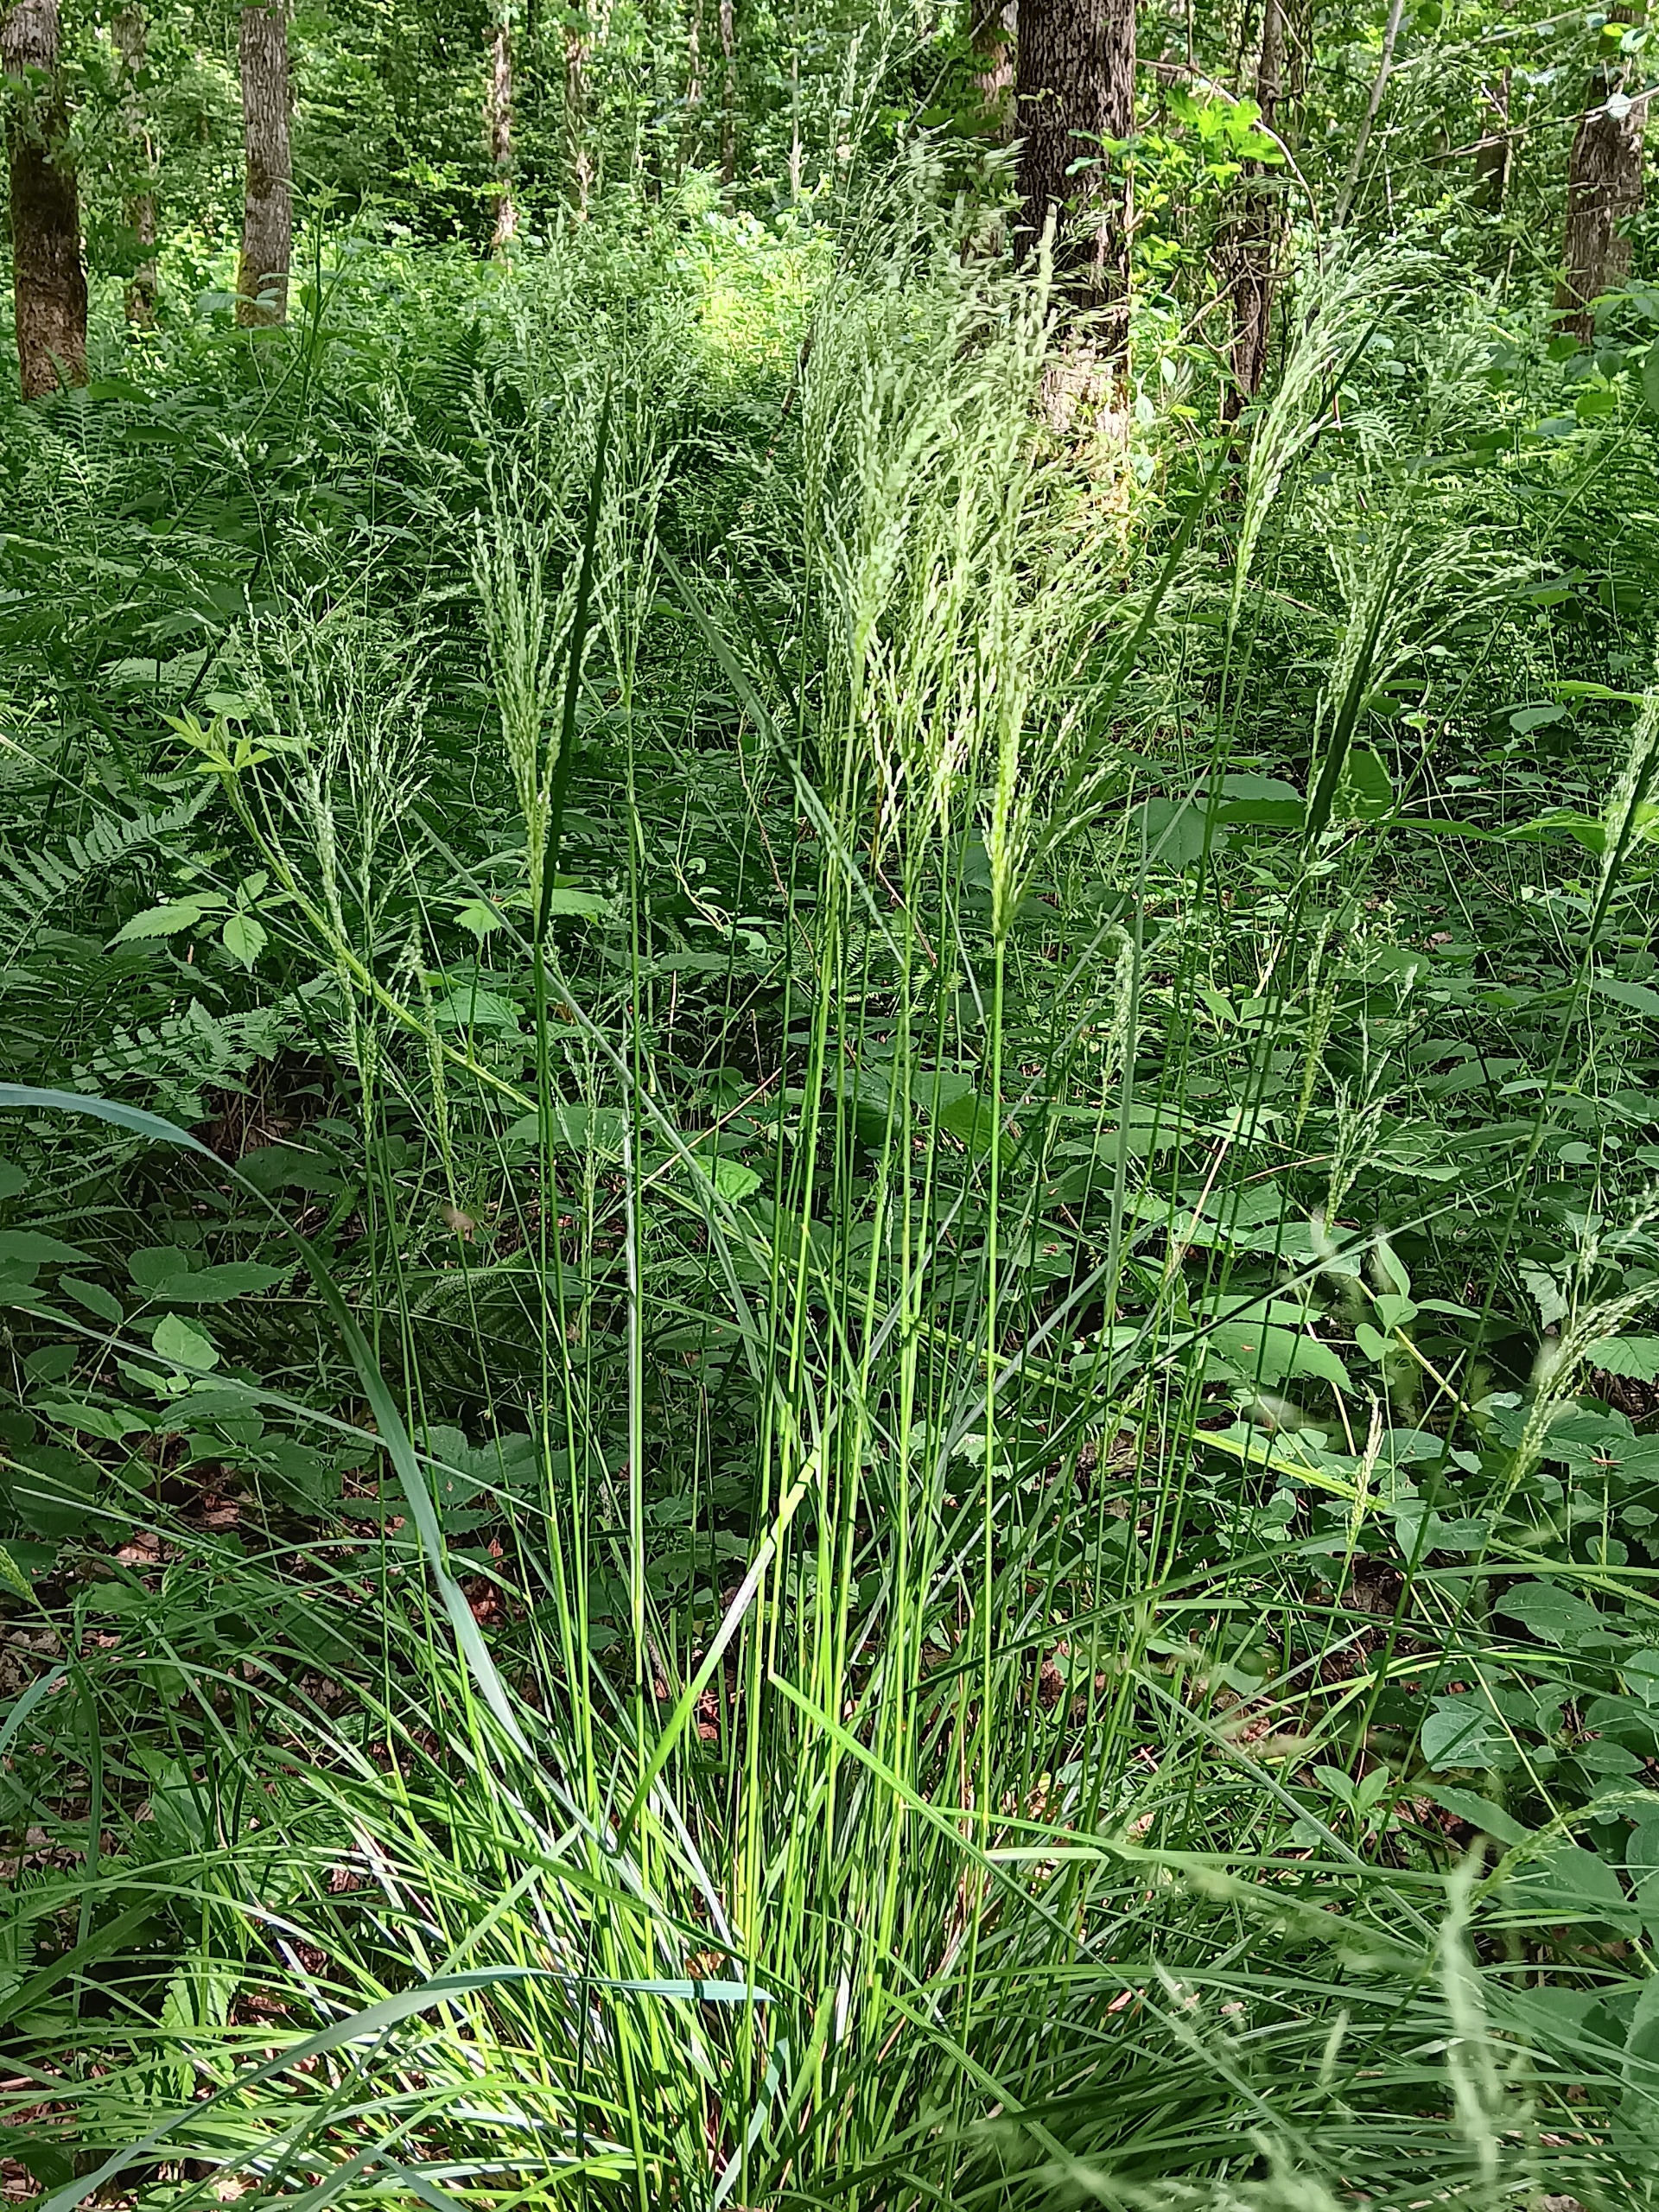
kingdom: Plantae
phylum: Tracheophyta
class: Liliopsida
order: Poales
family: Poaceae
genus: Deschampsia
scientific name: Deschampsia cespitosa
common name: Mose-bunke
